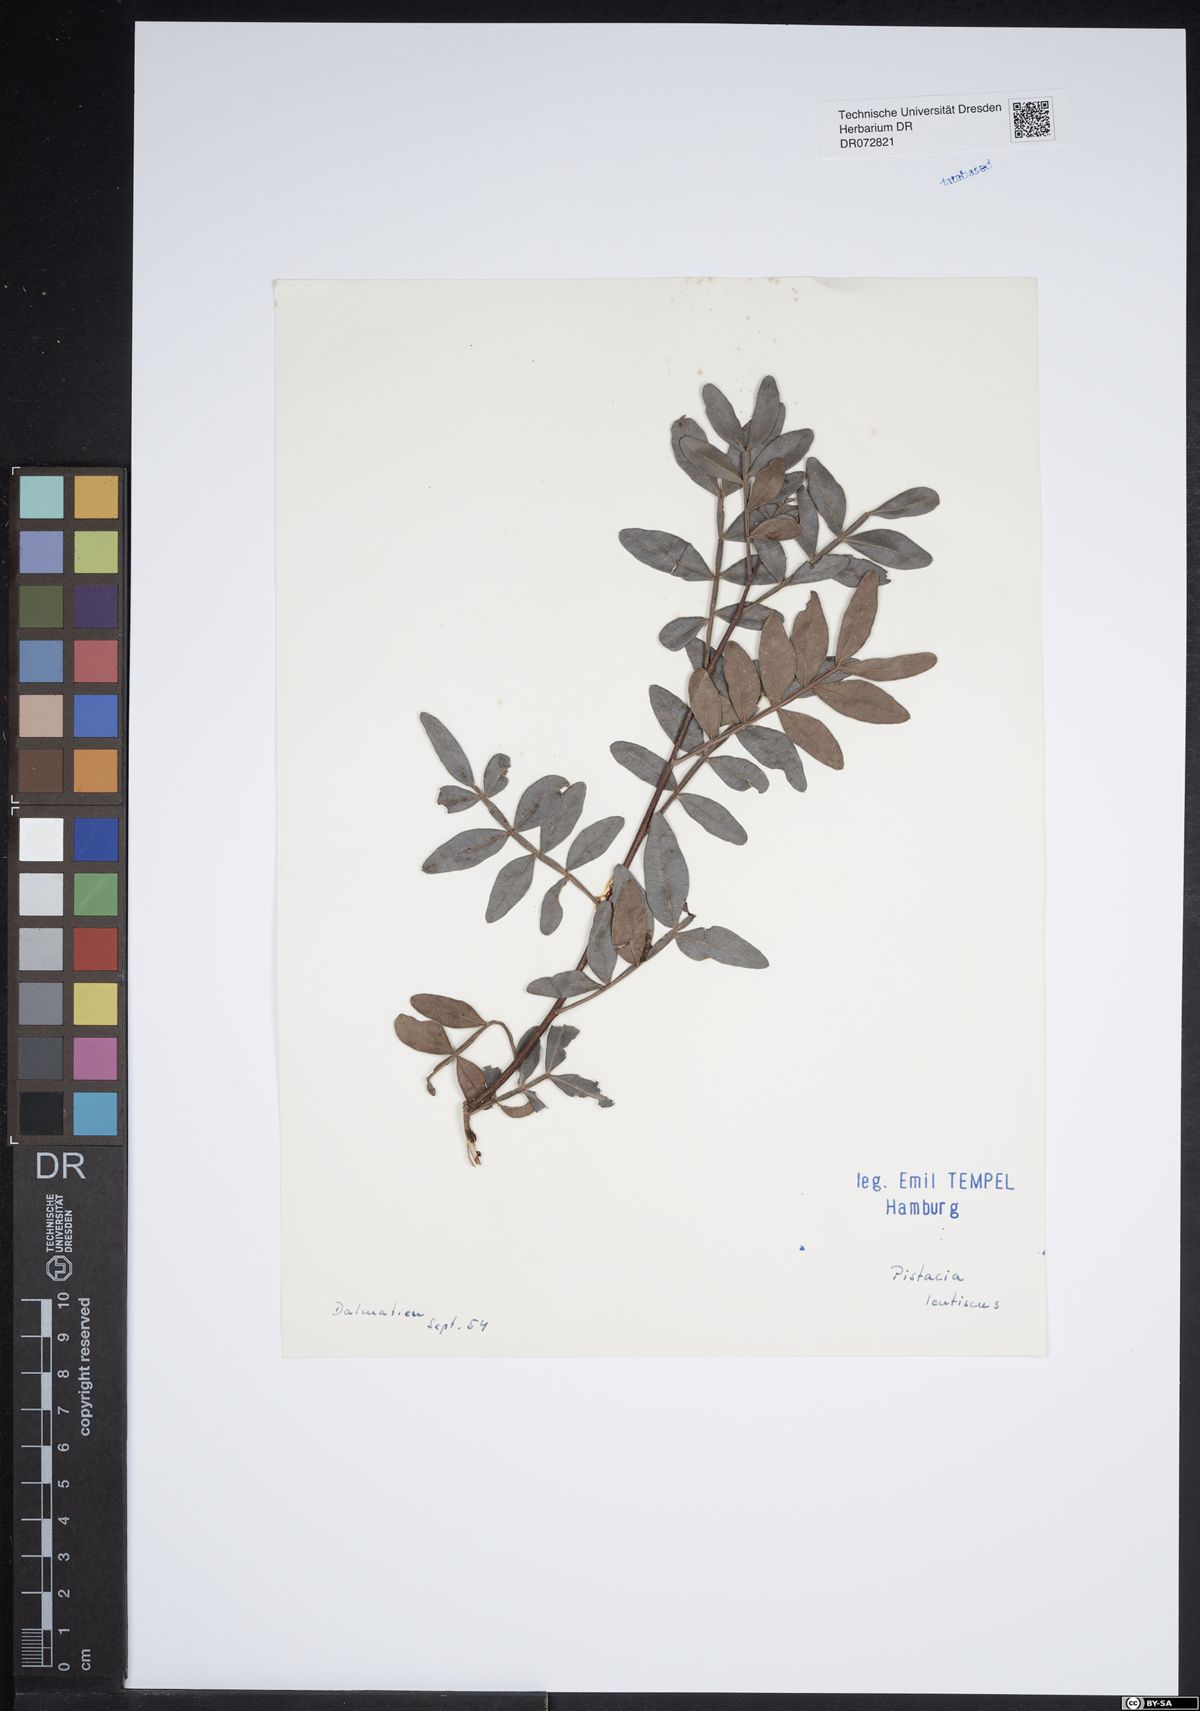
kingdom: Plantae
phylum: Tracheophyta
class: Magnoliopsida
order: Sapindales
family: Anacardiaceae
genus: Pistacia
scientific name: Pistacia lentiscus
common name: Lentisk
